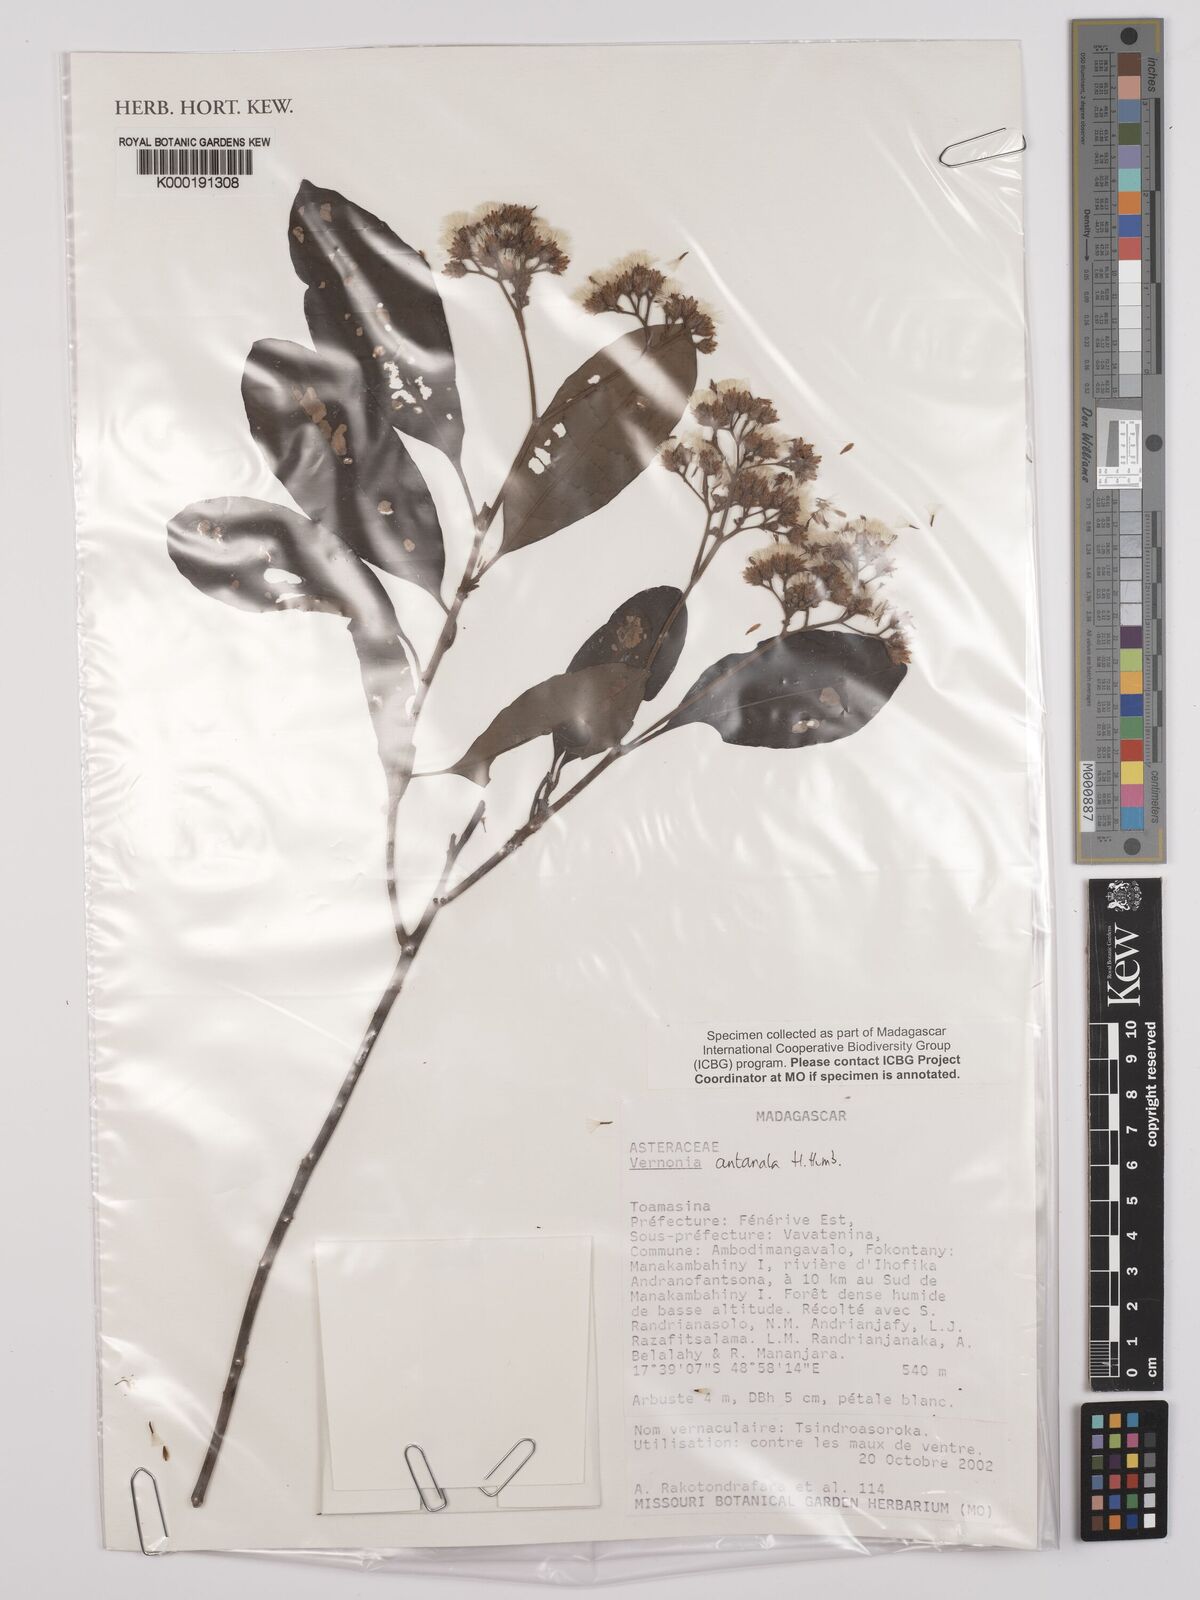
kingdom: Plantae
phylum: Tracheophyta
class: Magnoliopsida
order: Asterales
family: Asteraceae
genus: Gymnanthemum
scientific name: Gymnanthemum antanalus
